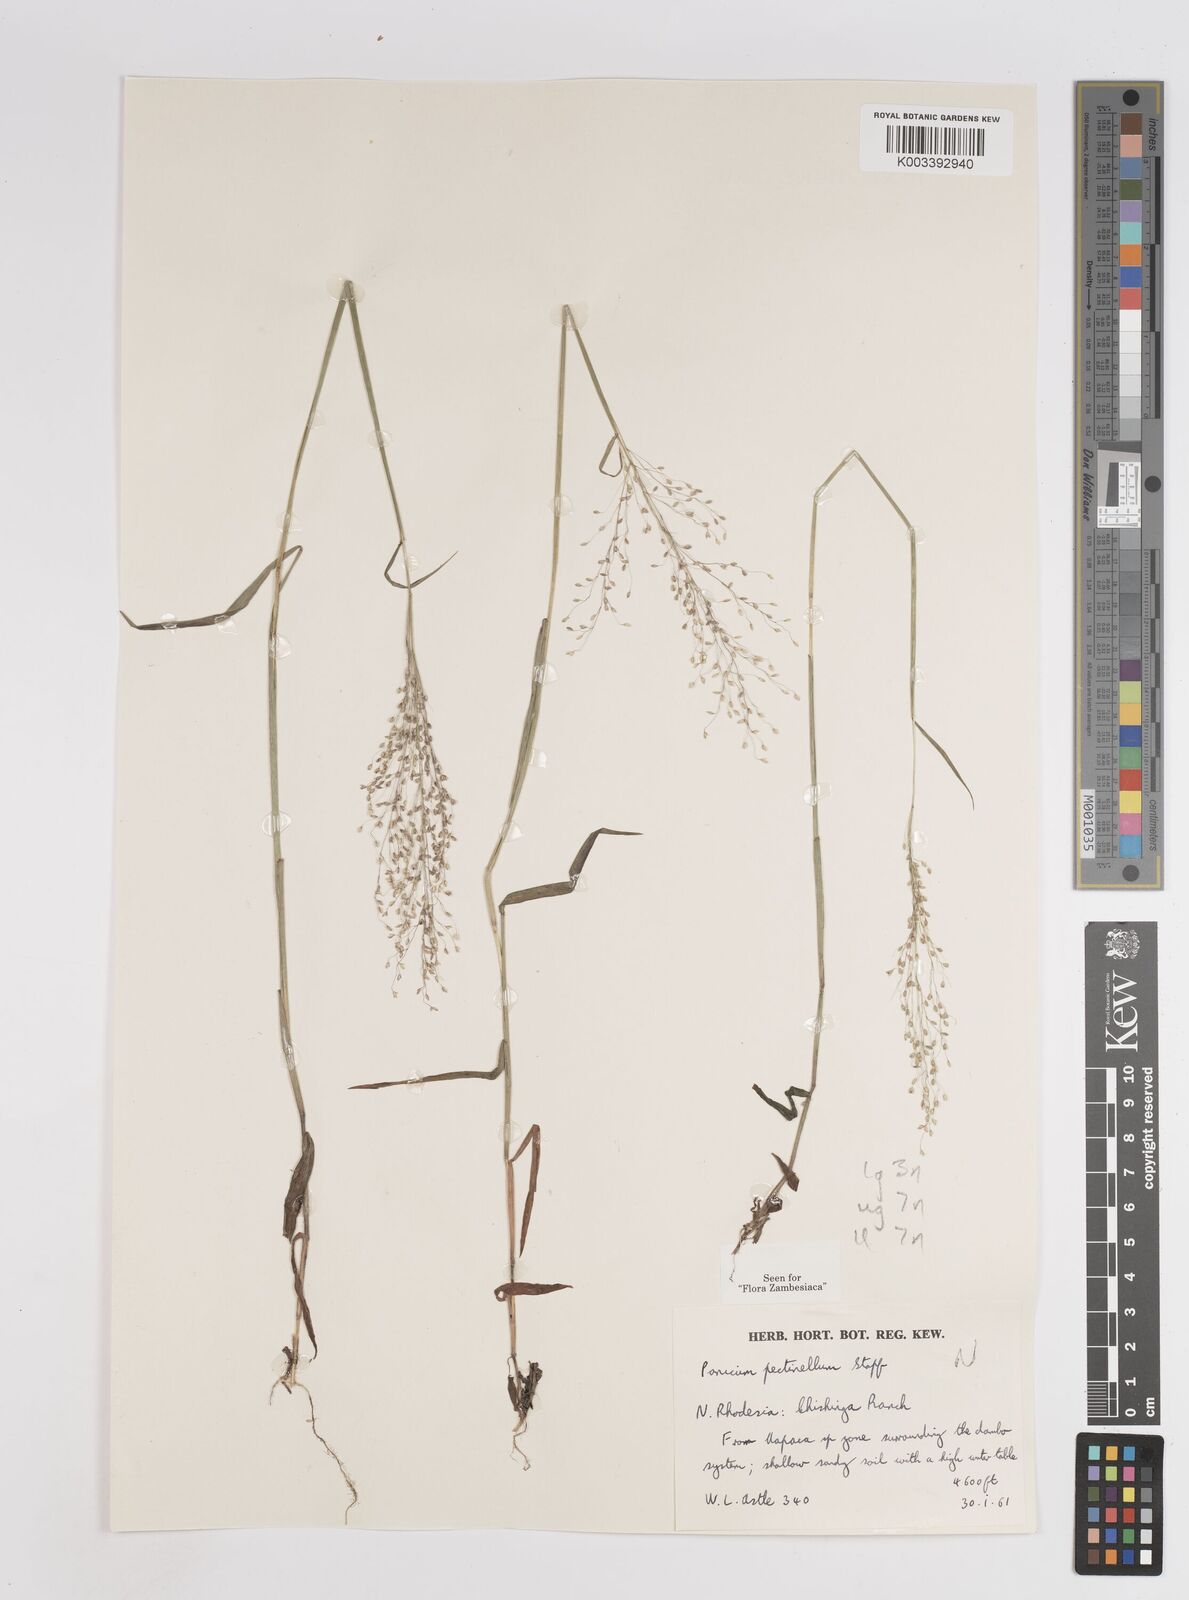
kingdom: Plantae
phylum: Tracheophyta
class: Liliopsida
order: Poales
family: Poaceae
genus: Adenochloa
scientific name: Adenochloa pectinella
